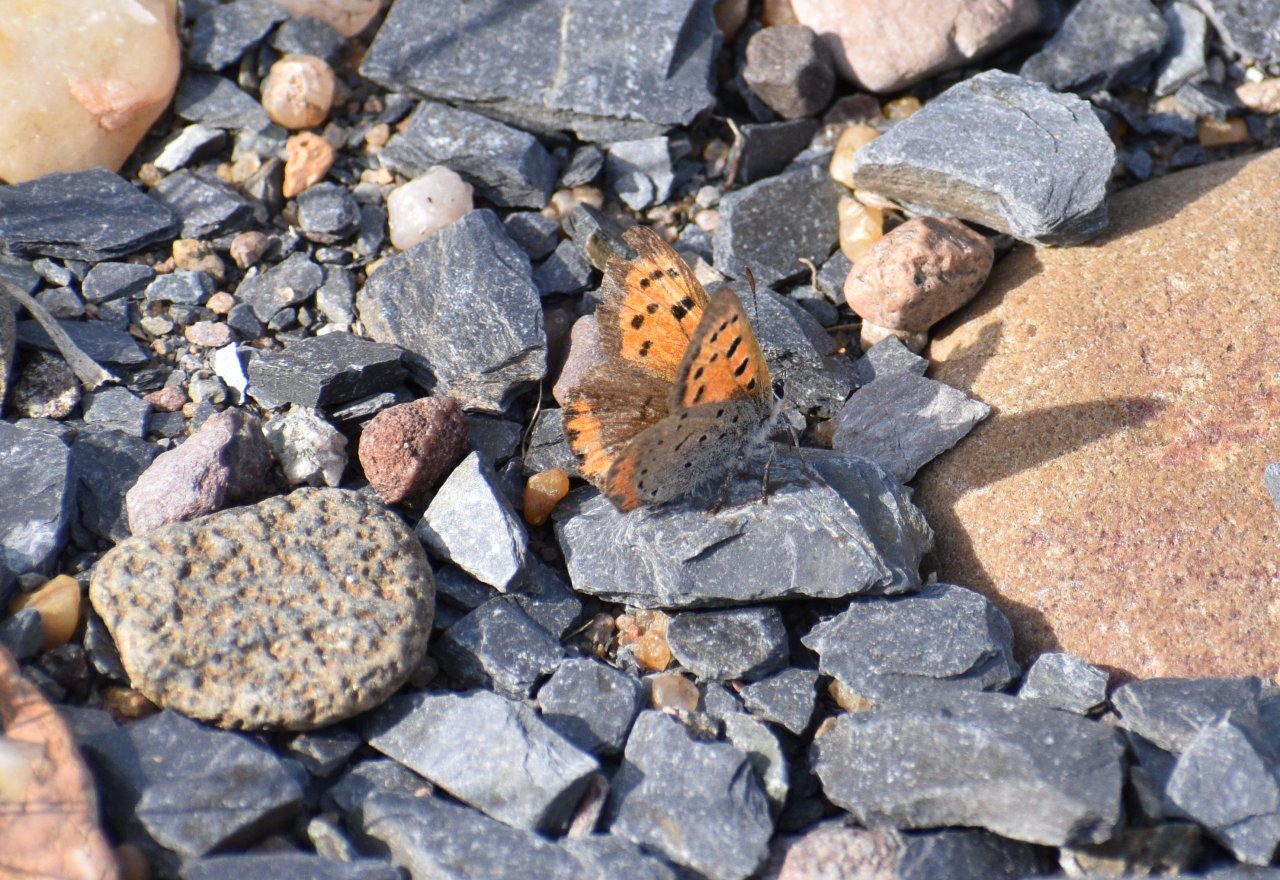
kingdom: Animalia
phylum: Arthropoda
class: Insecta
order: Lepidoptera
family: Lycaenidae
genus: Lycaena
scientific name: Lycaena phlaeas
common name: American Copper
